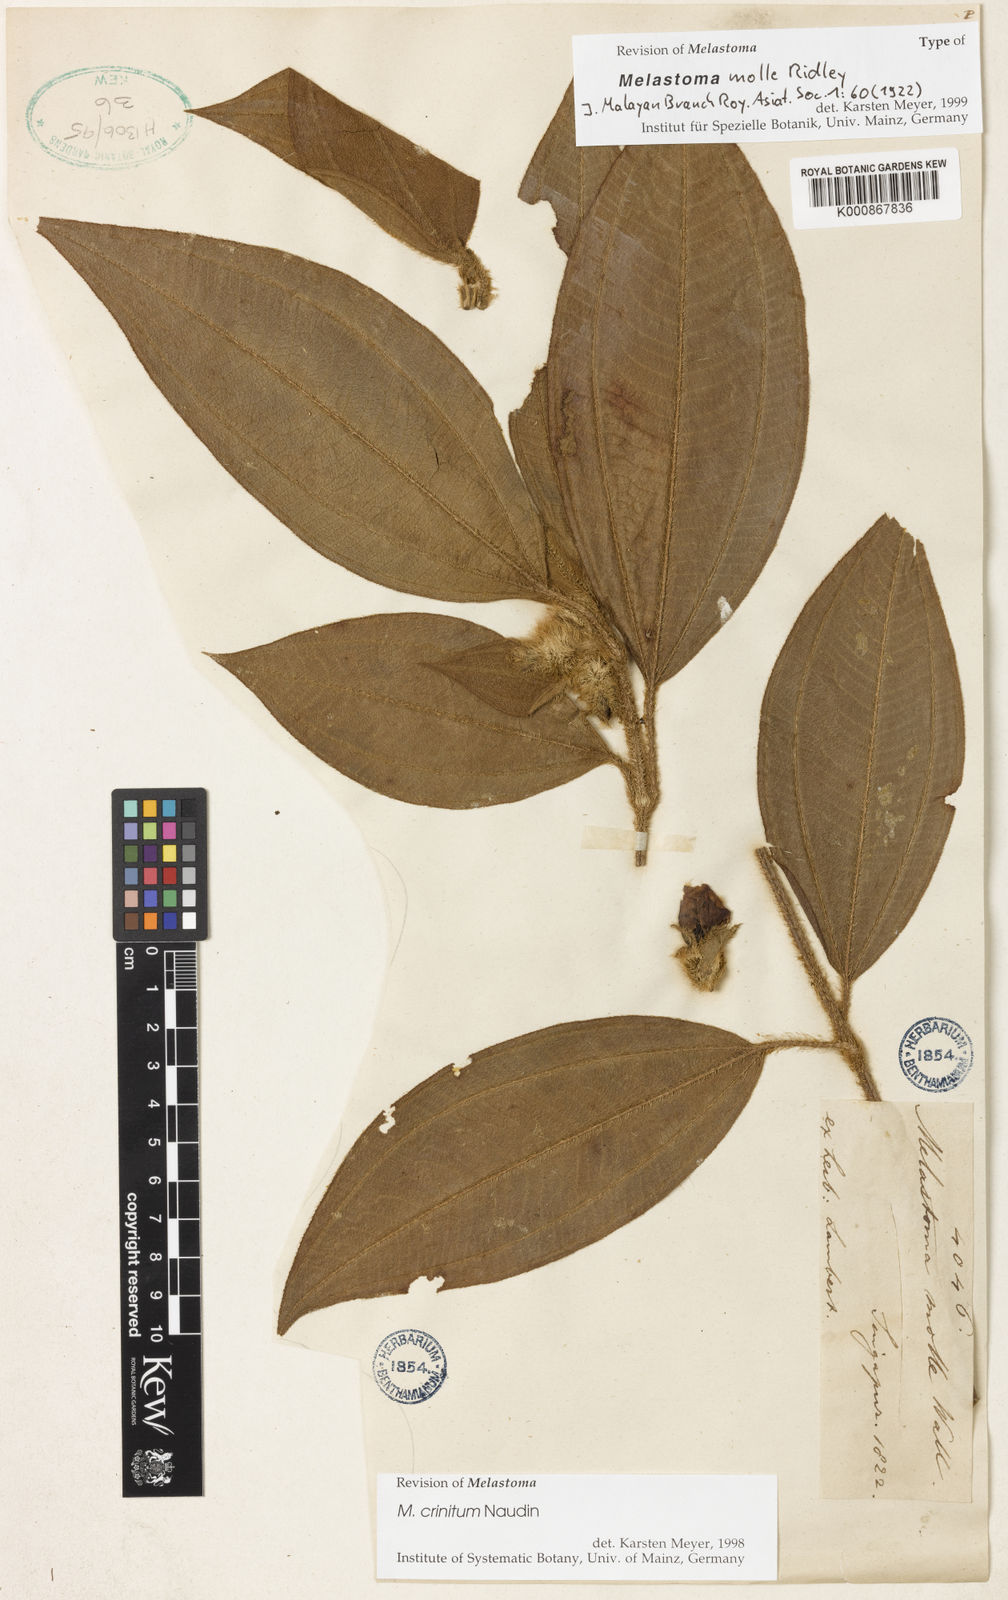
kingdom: Plantae
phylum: Tracheophyta
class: Magnoliopsida
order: Myrtales
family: Melastomataceae
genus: Melastoma
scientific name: Melastoma penicillatum
